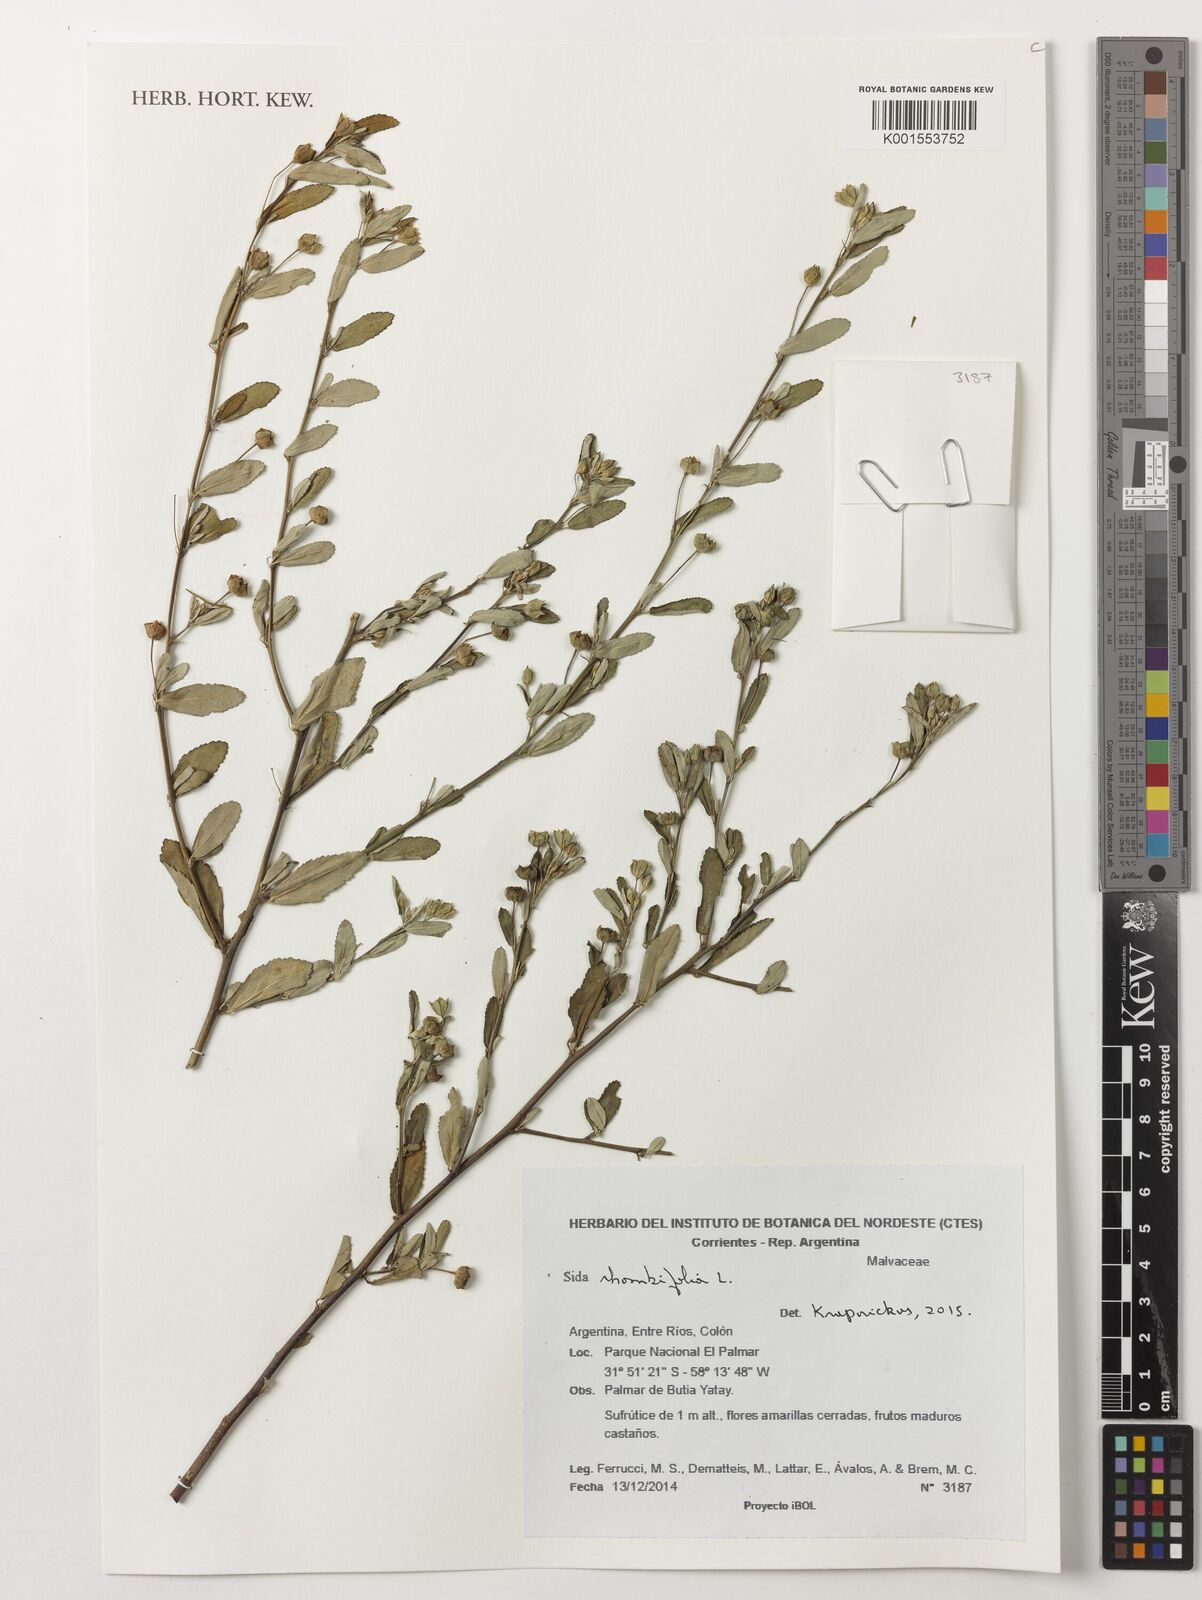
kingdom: Plantae
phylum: Tracheophyta
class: Magnoliopsida
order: Malvales
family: Malvaceae
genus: Sida
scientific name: Sida rhombifolia
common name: Queensland-hemp
